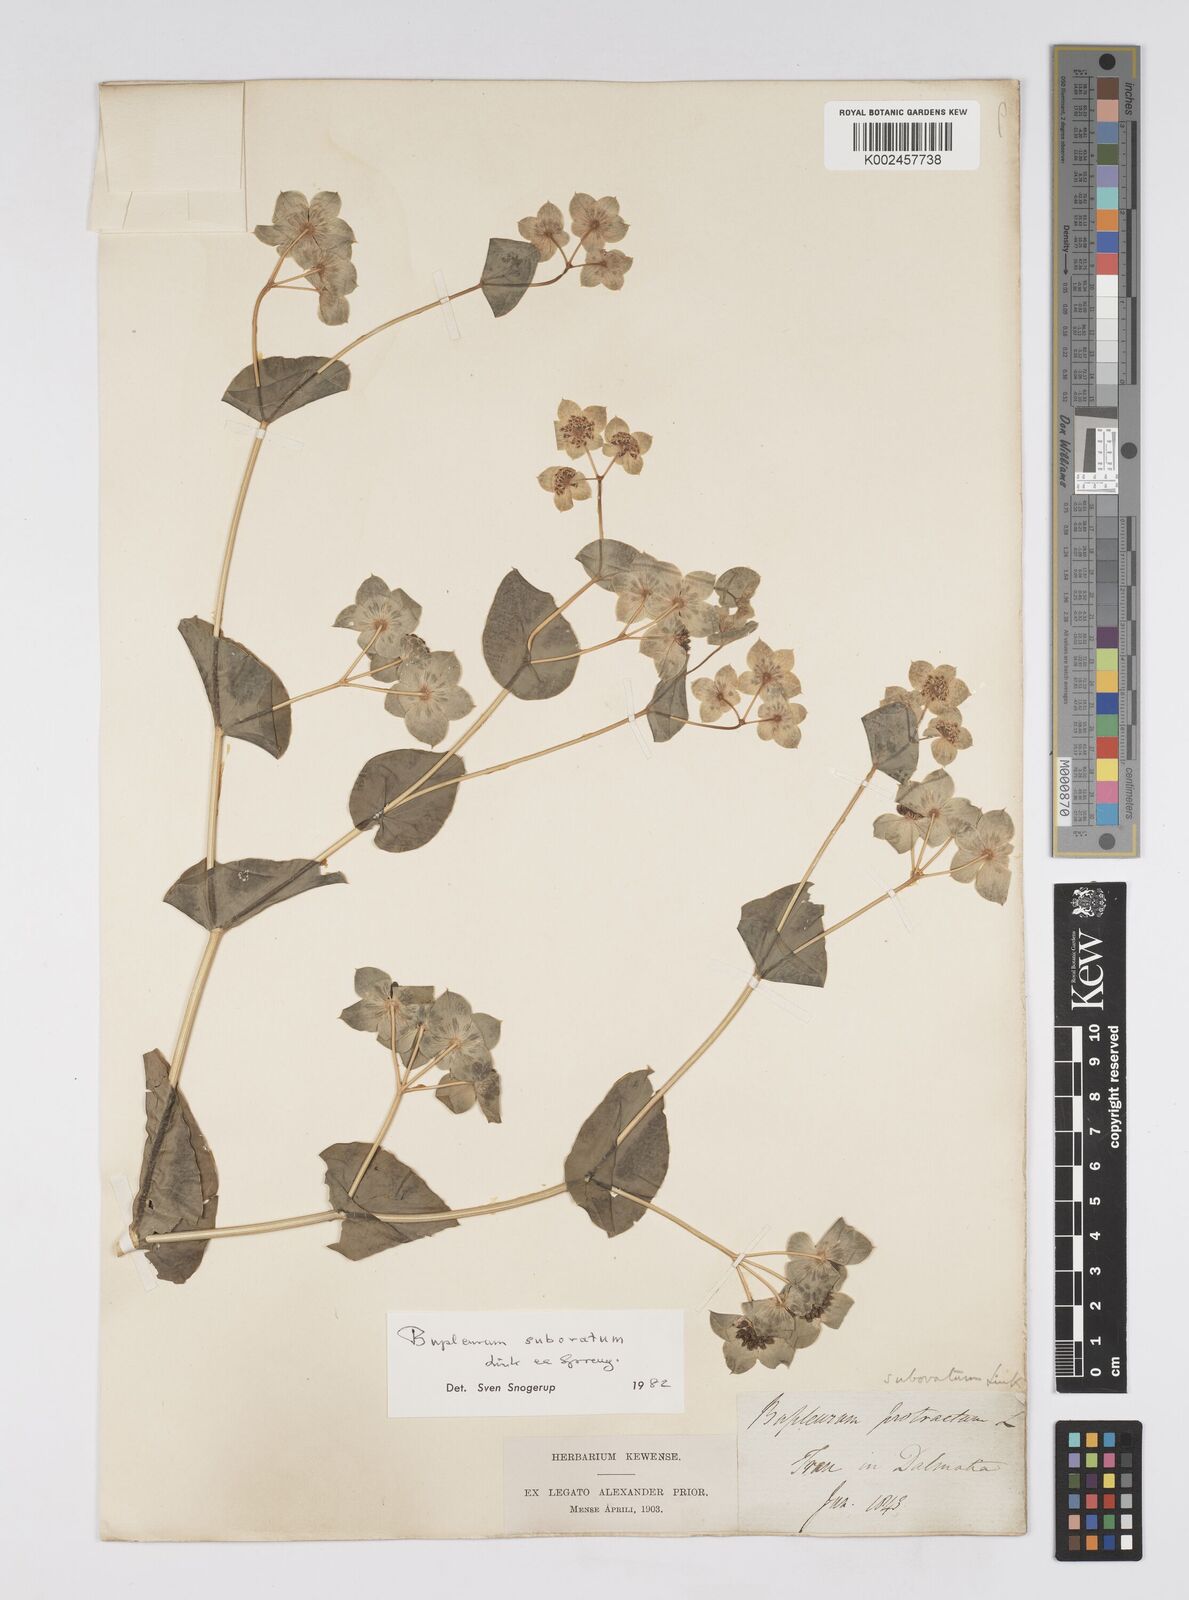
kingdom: Plantae
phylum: Tracheophyta
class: Magnoliopsida
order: Apiales
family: Apiaceae
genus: Bupleurum
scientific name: Bupleurum subovatum
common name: False thorow-wax
